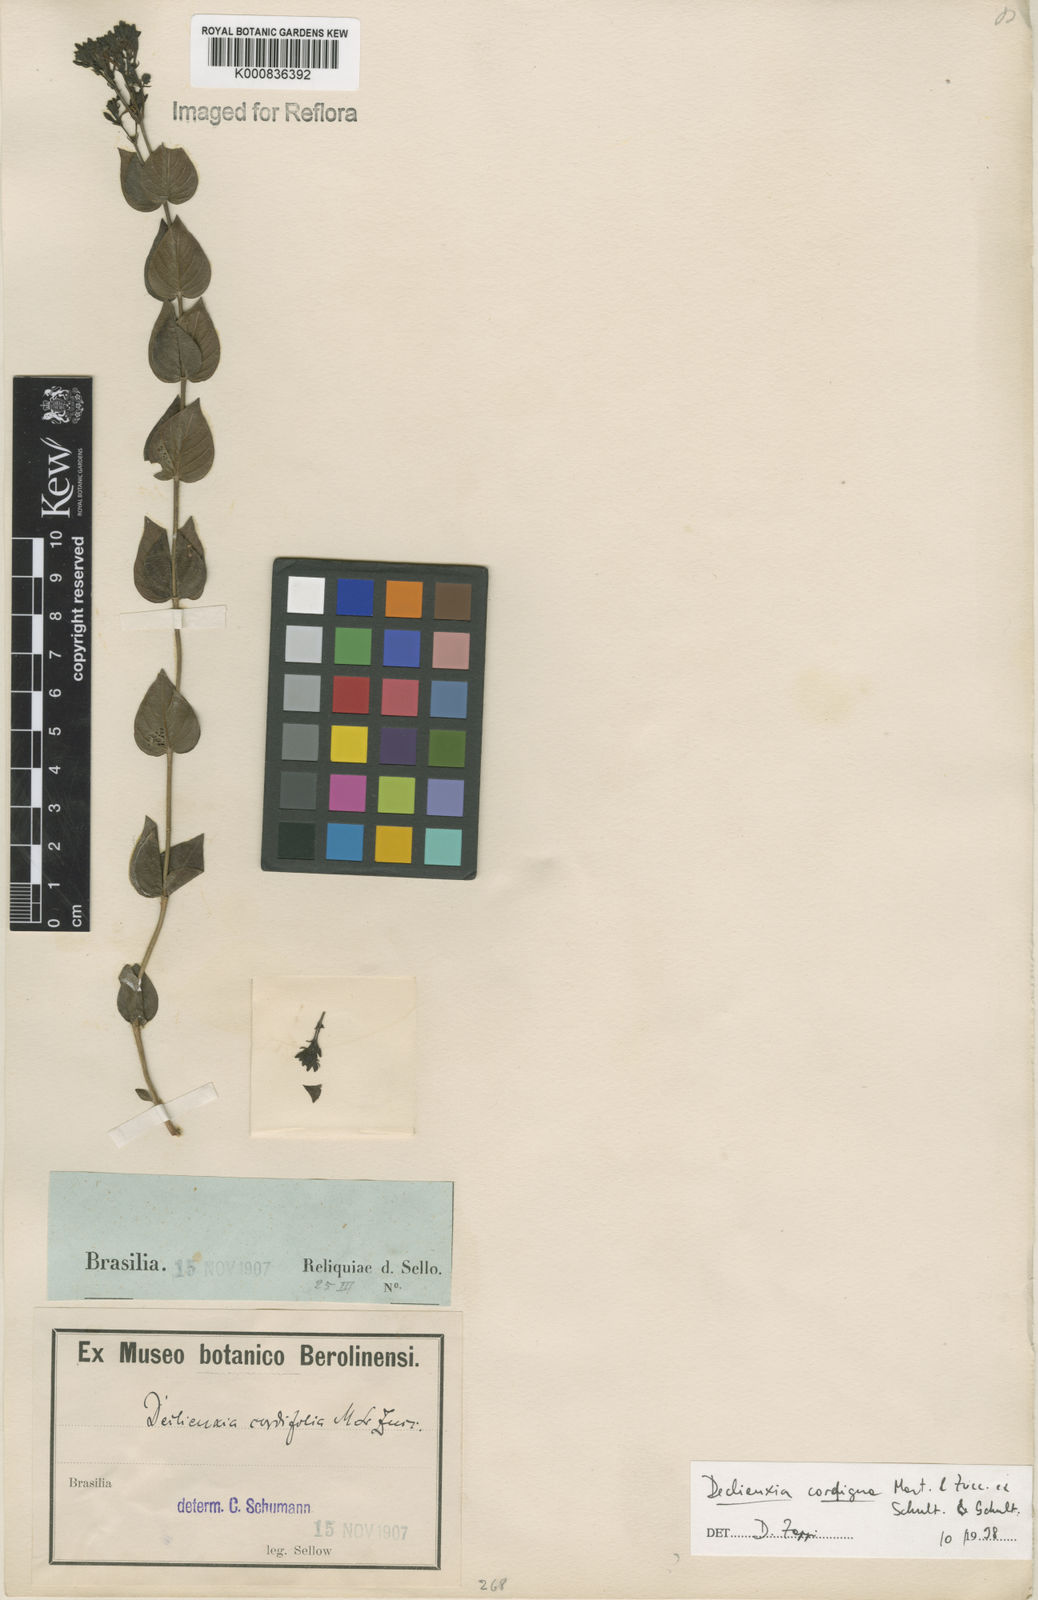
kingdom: Plantae
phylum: Tracheophyta
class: Magnoliopsida
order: Gentianales
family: Rubiaceae
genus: Declieuxia
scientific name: Declieuxia
